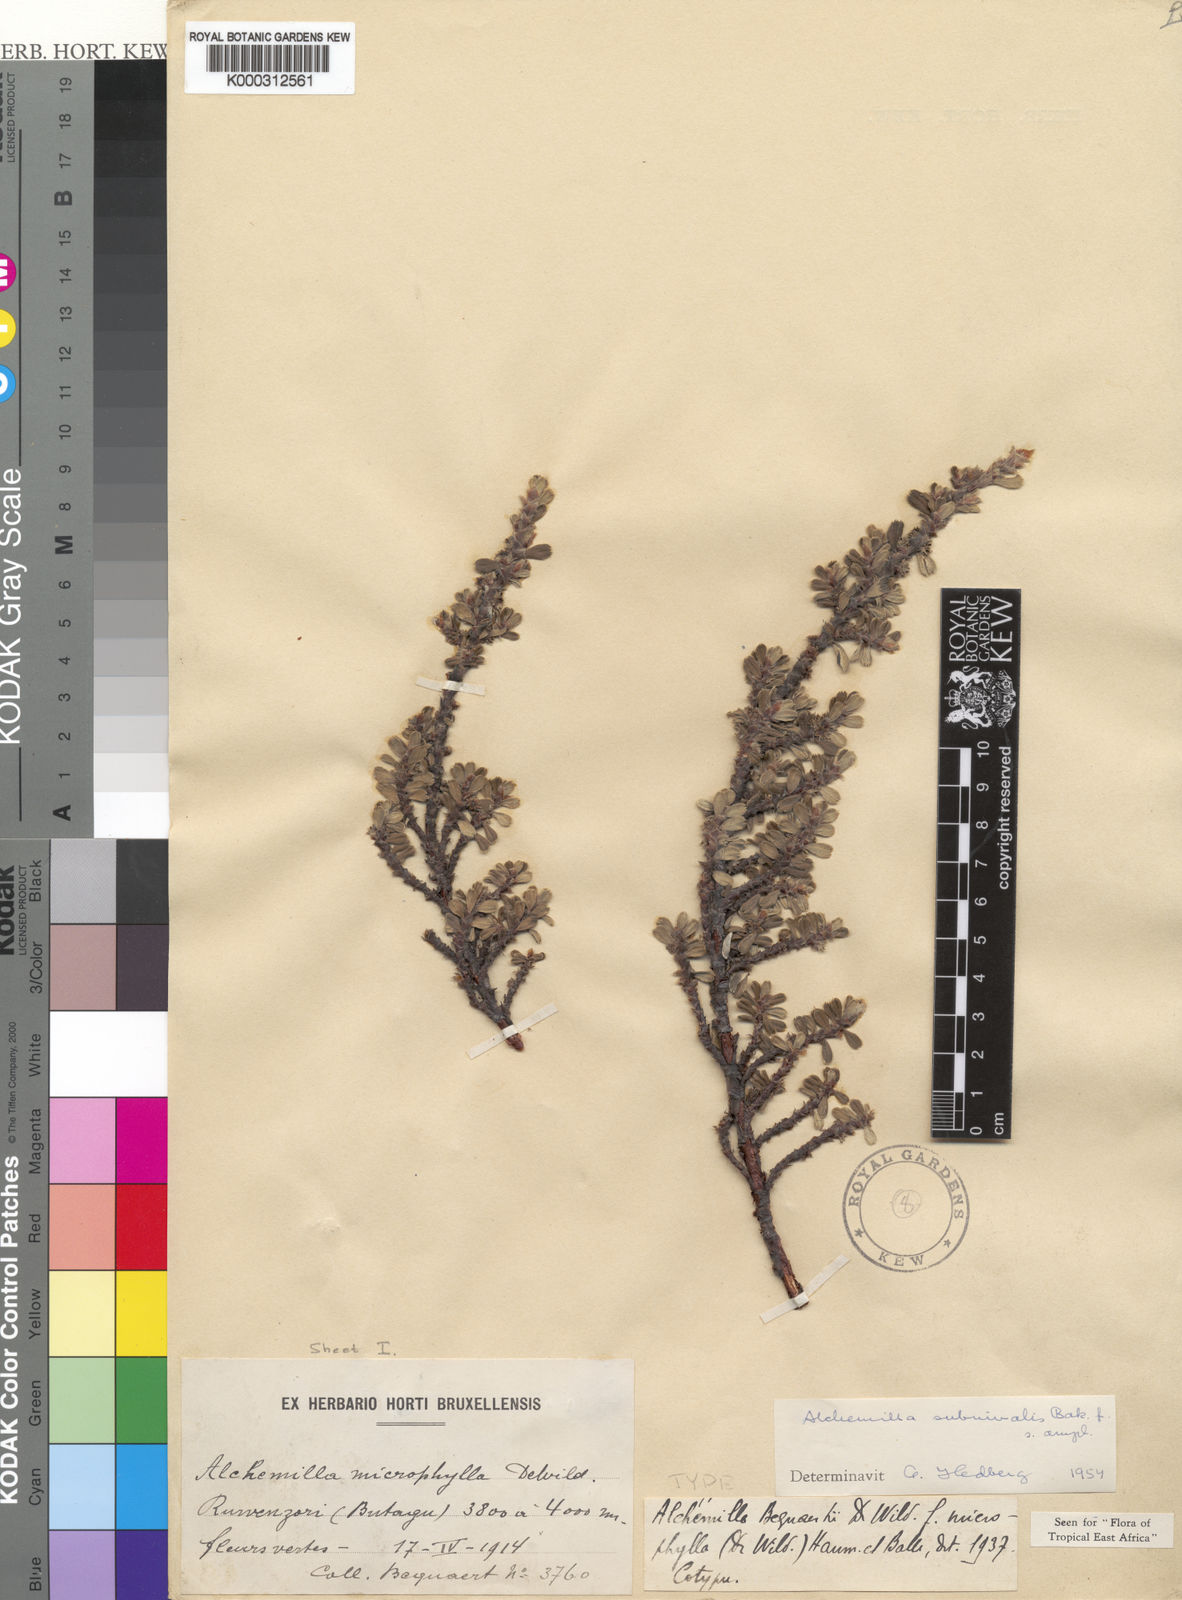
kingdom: Plantae
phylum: Tracheophyta
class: Magnoliopsida
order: Rosales
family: Rosaceae
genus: Alchemilla
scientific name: Alchemilla subnivalis
